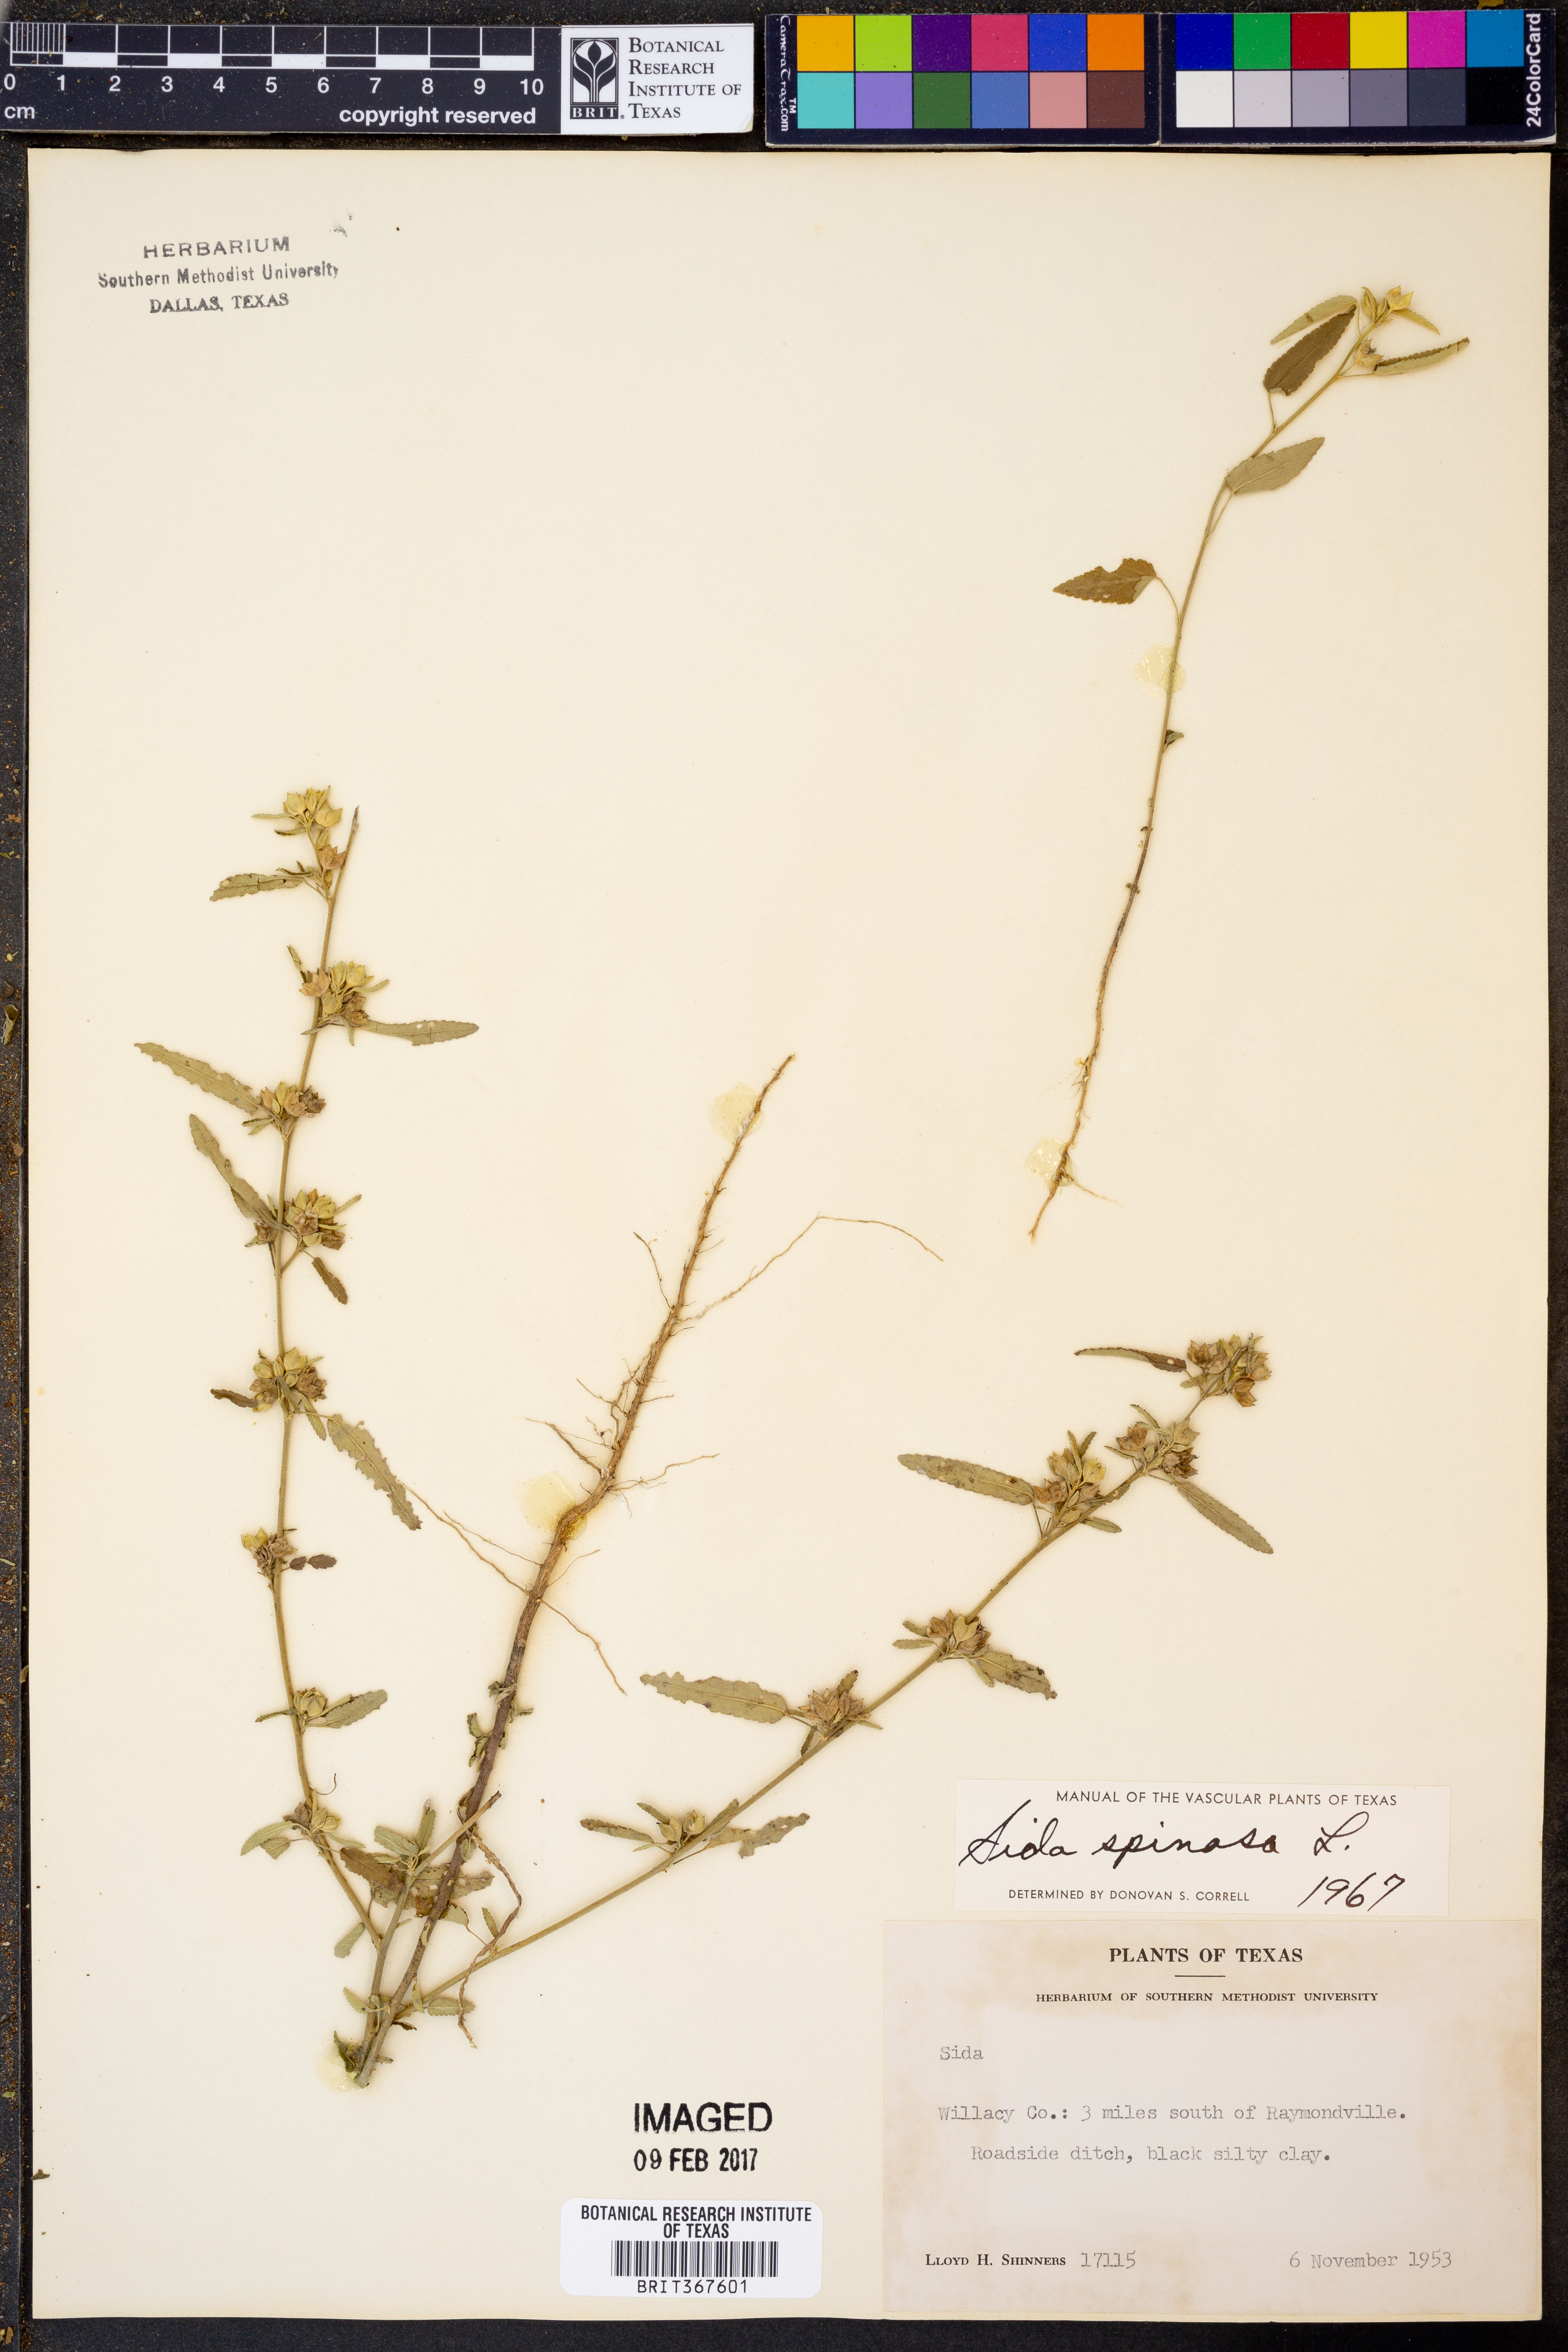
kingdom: Plantae
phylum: Tracheophyta
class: Magnoliopsida
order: Malvales
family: Malvaceae
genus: Sida
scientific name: Sida spinosa
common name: Prickly fanpetals
